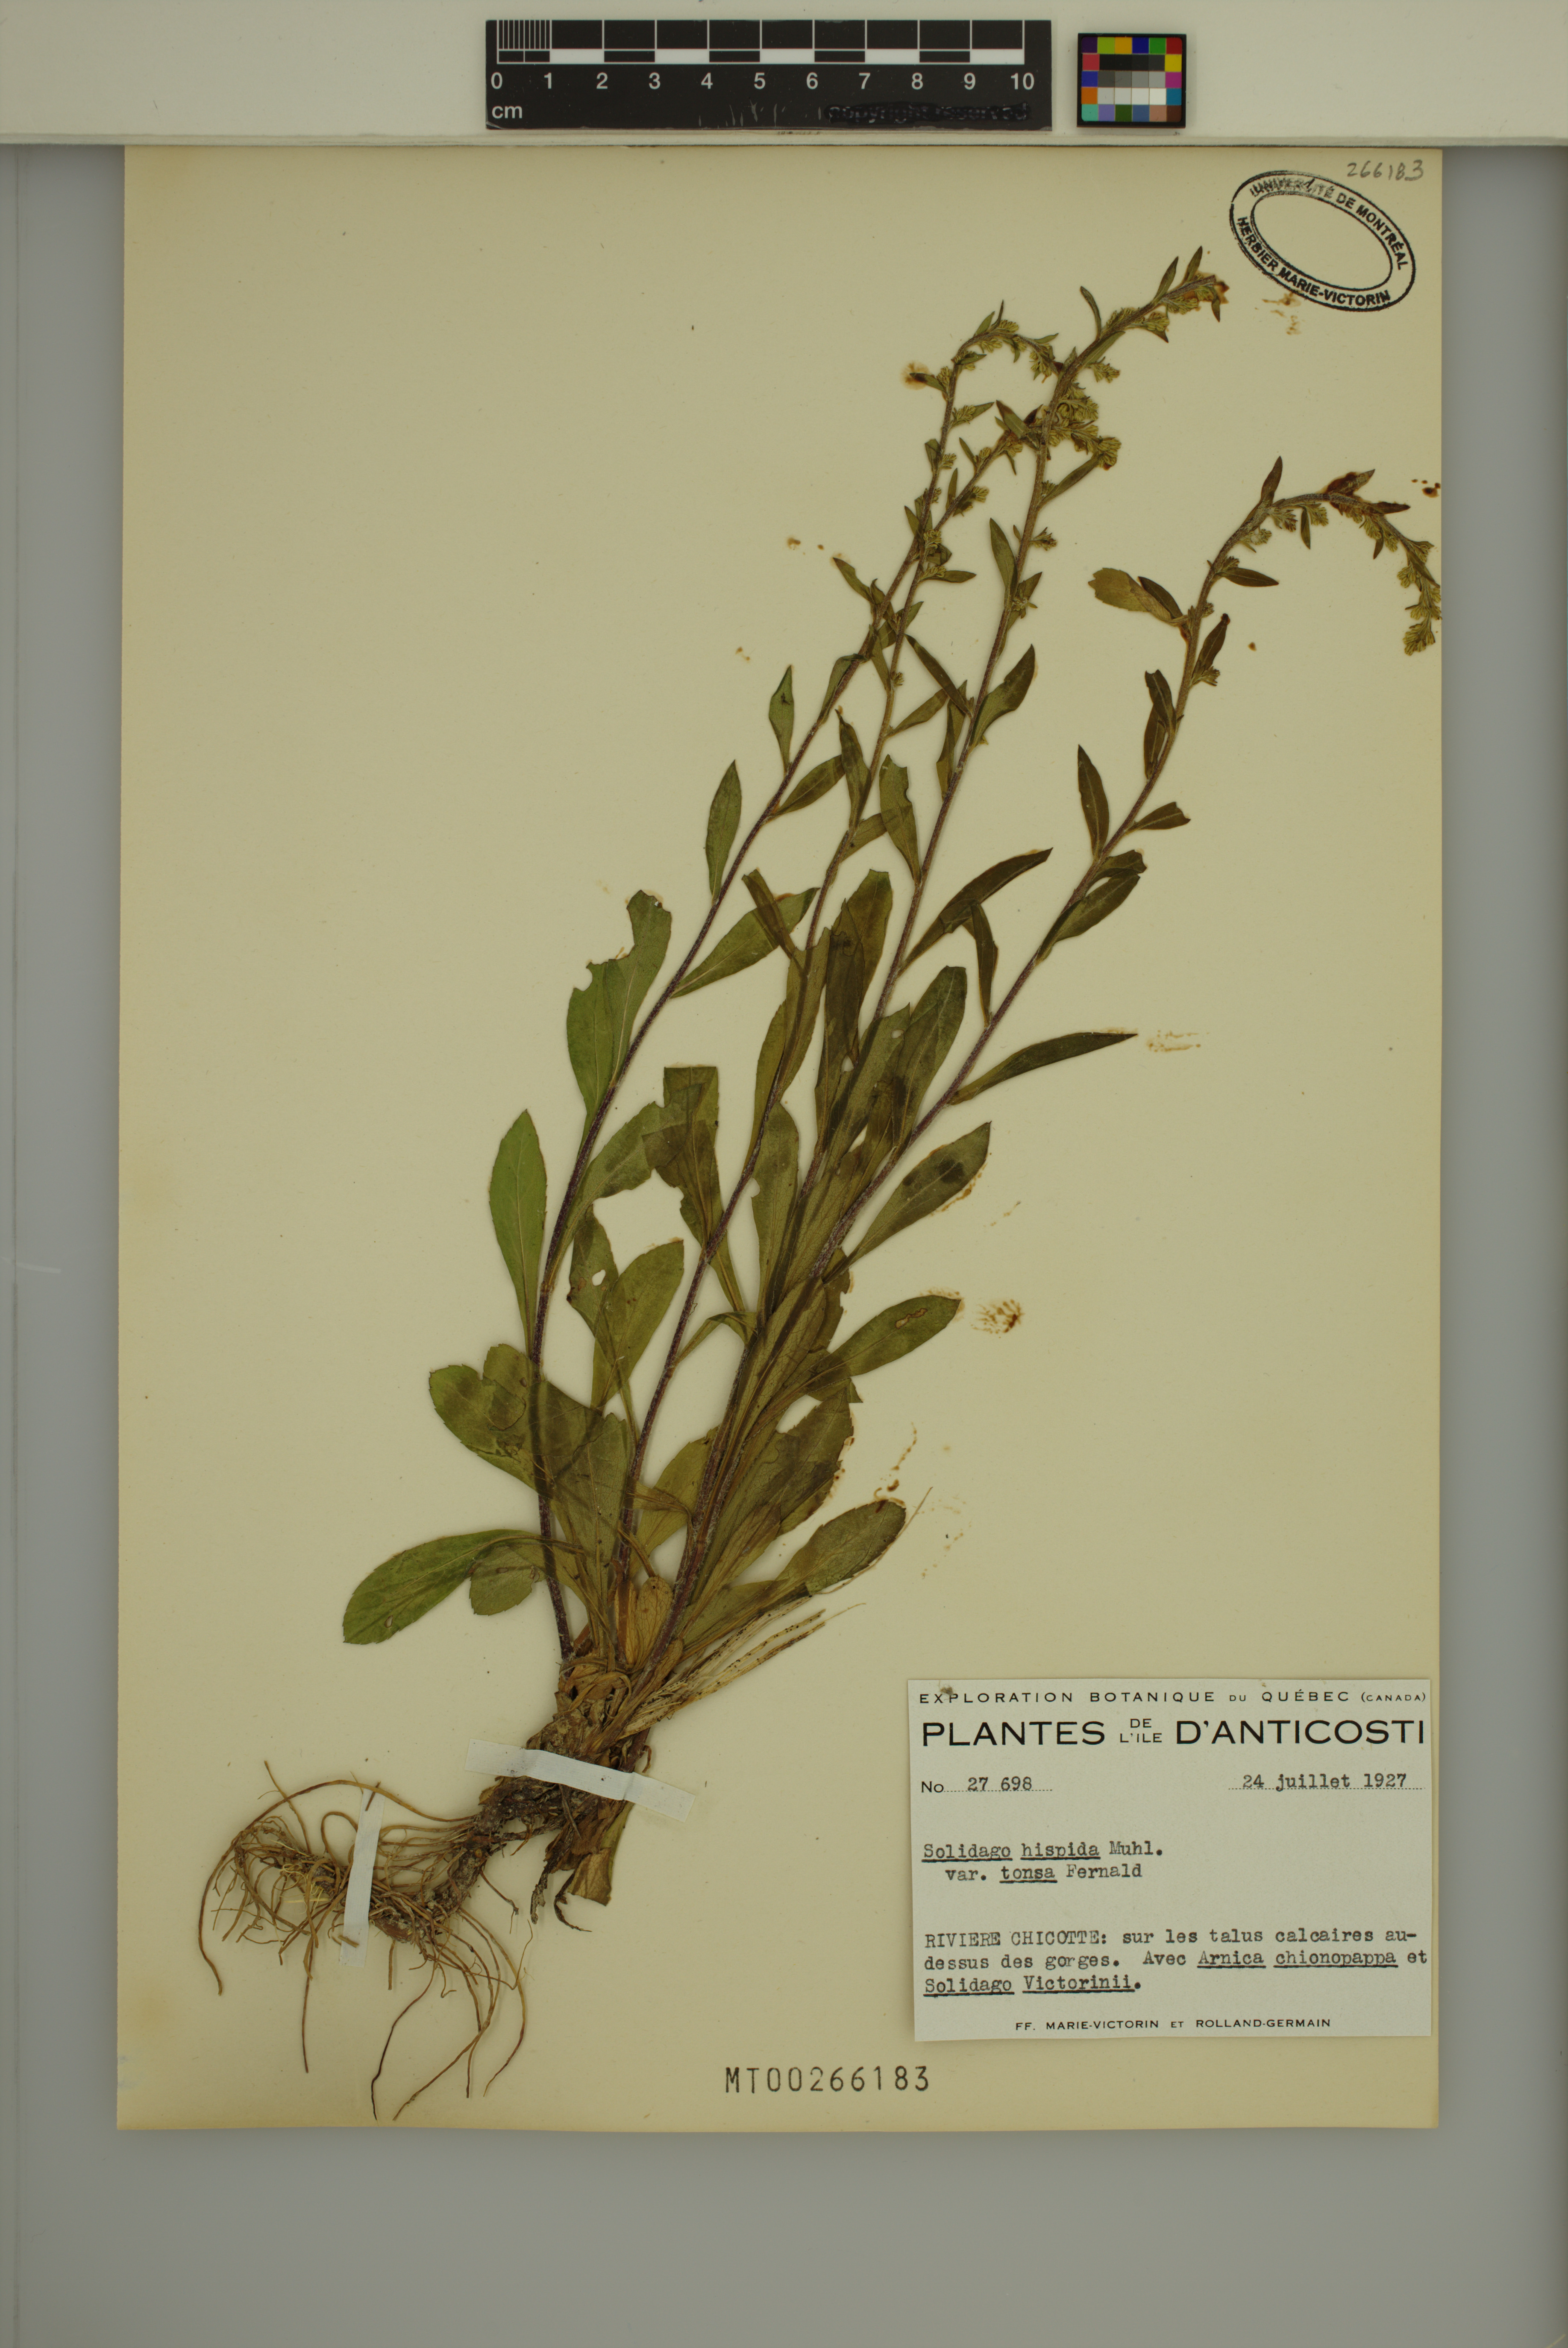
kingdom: Plantae
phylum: Tracheophyta
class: Magnoliopsida
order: Asterales
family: Asteraceae
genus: Solidago
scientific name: Solidago hispida
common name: Hairy goldenrod
